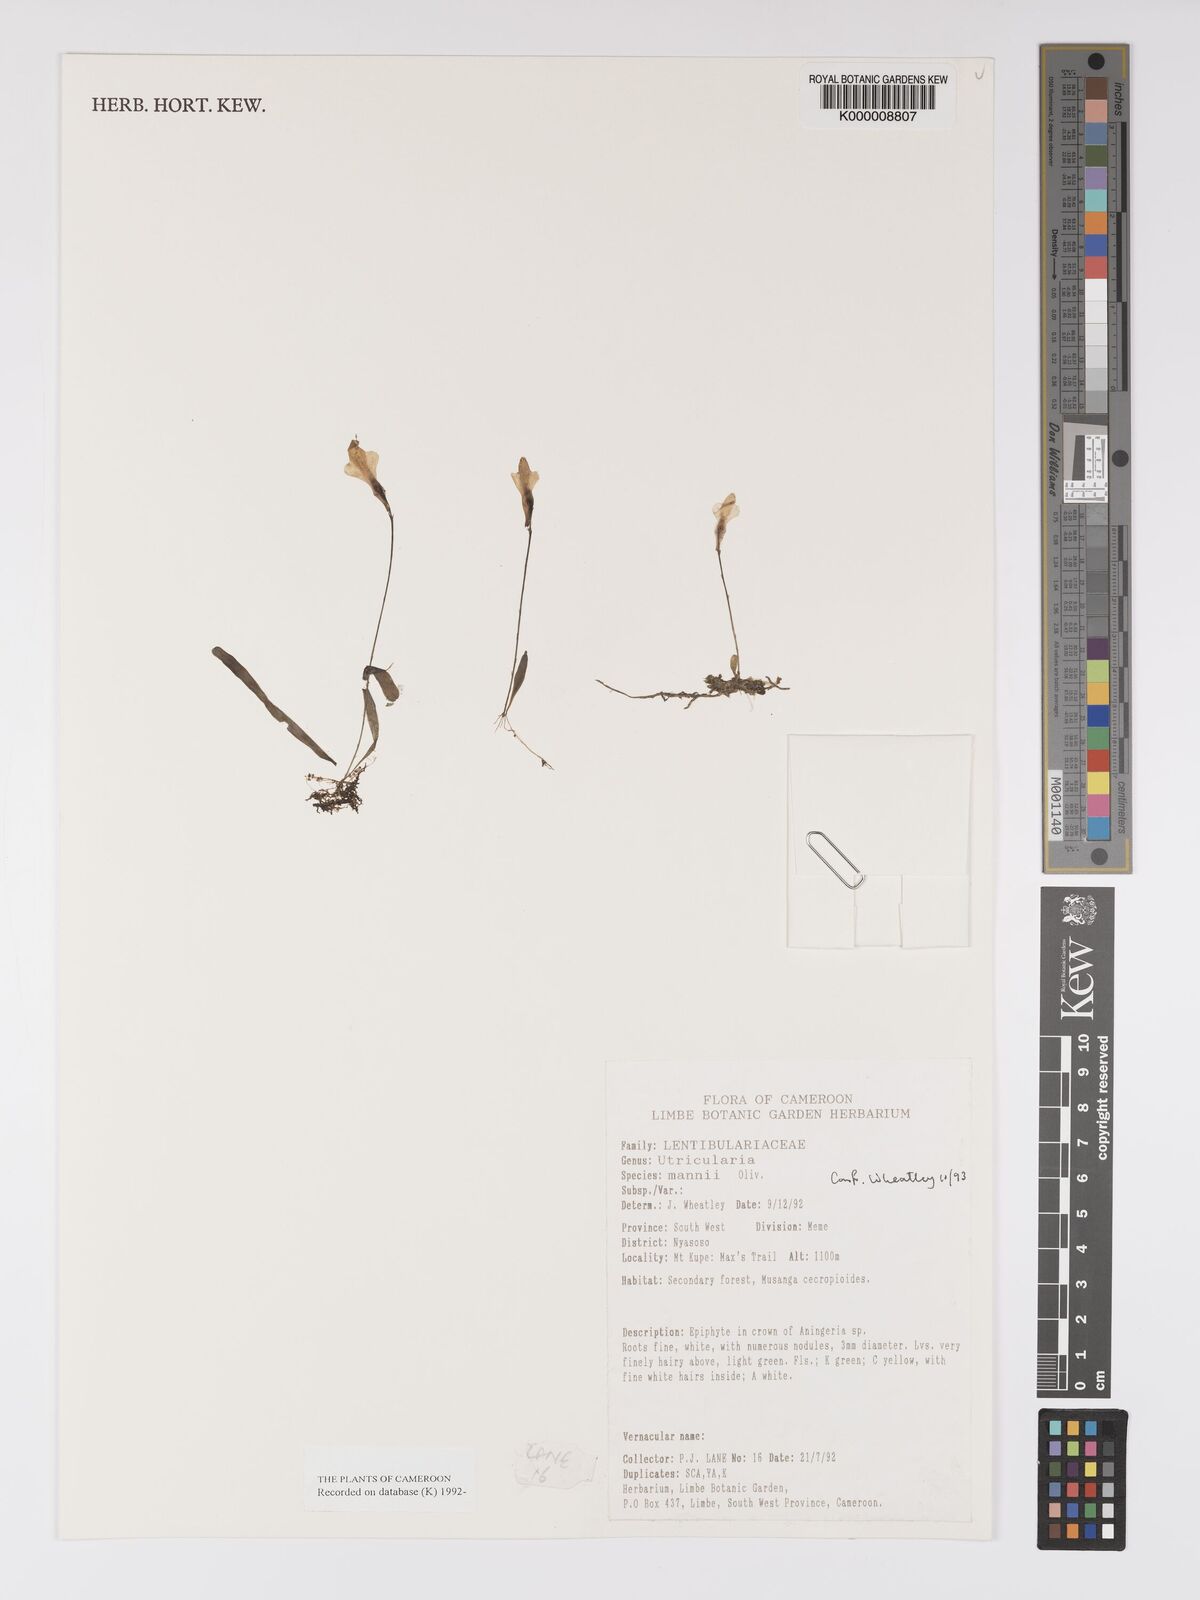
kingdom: Plantae
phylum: Tracheophyta
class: Magnoliopsida
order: Lamiales
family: Lentibulariaceae
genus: Utricularia
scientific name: Utricularia mannii
